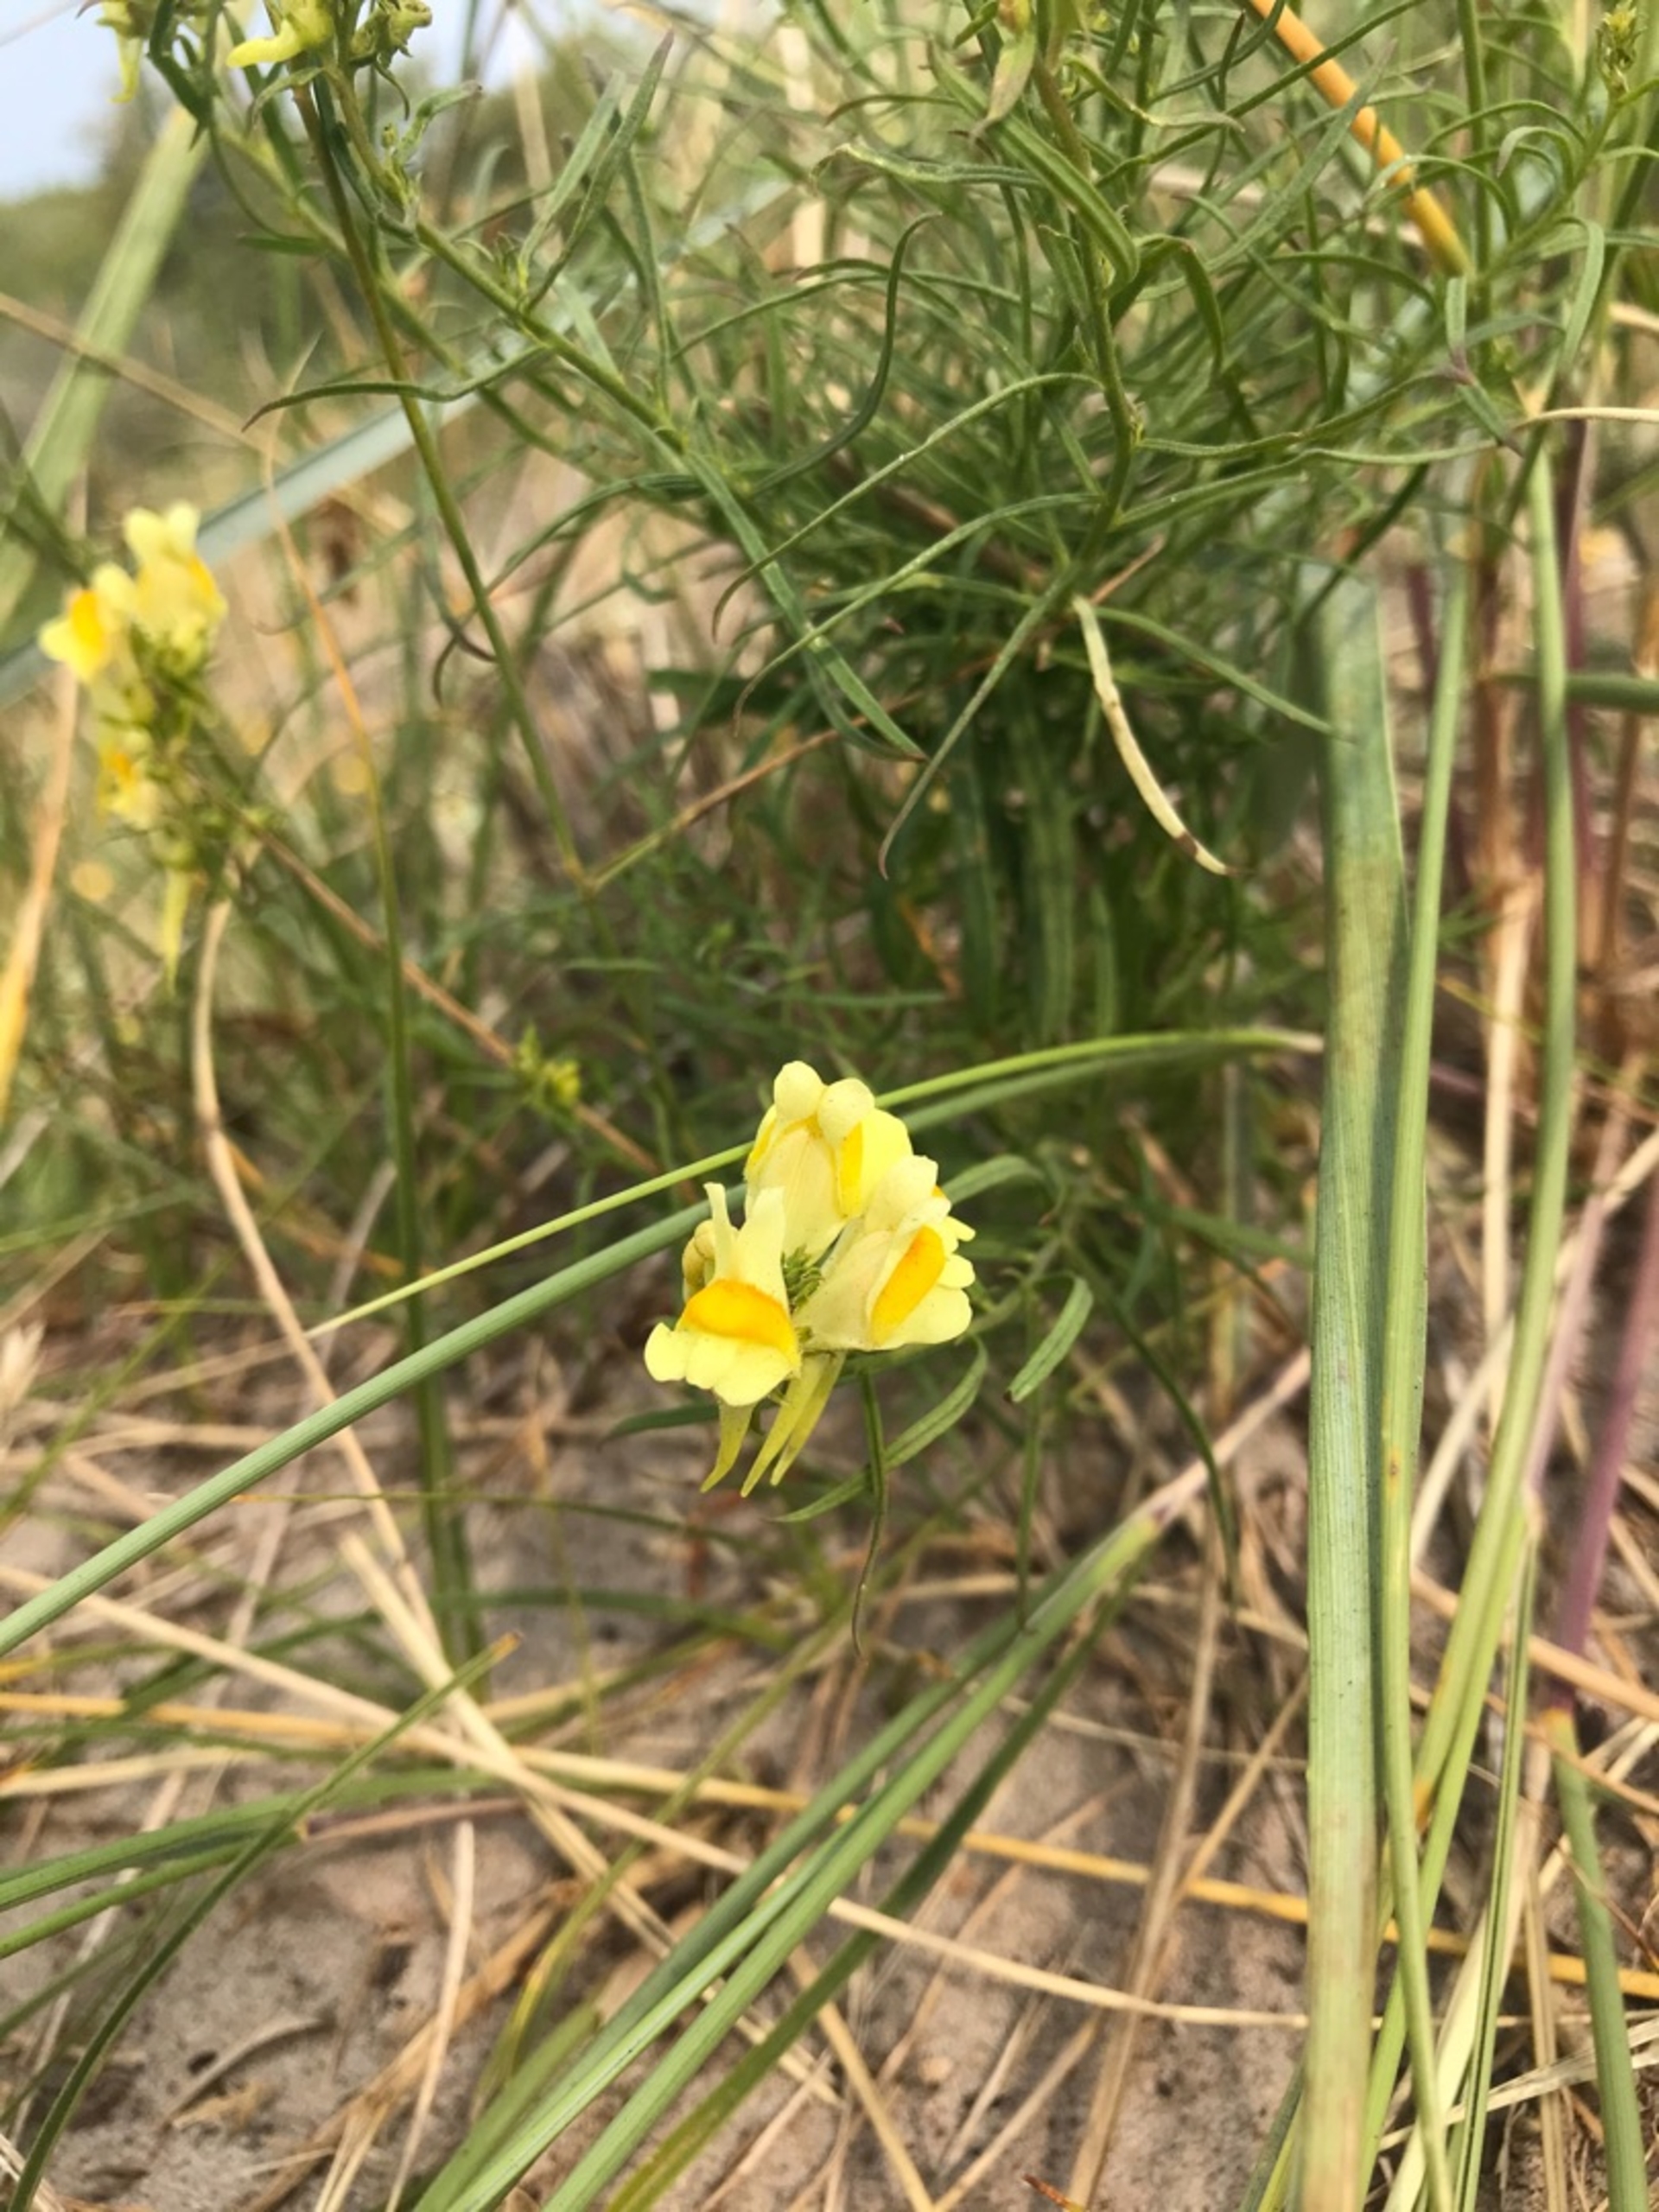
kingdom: Plantae
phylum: Tracheophyta
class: Magnoliopsida
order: Lamiales
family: Plantaginaceae
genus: Linaria
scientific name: Linaria vulgaris
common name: Almindelig torskemund
